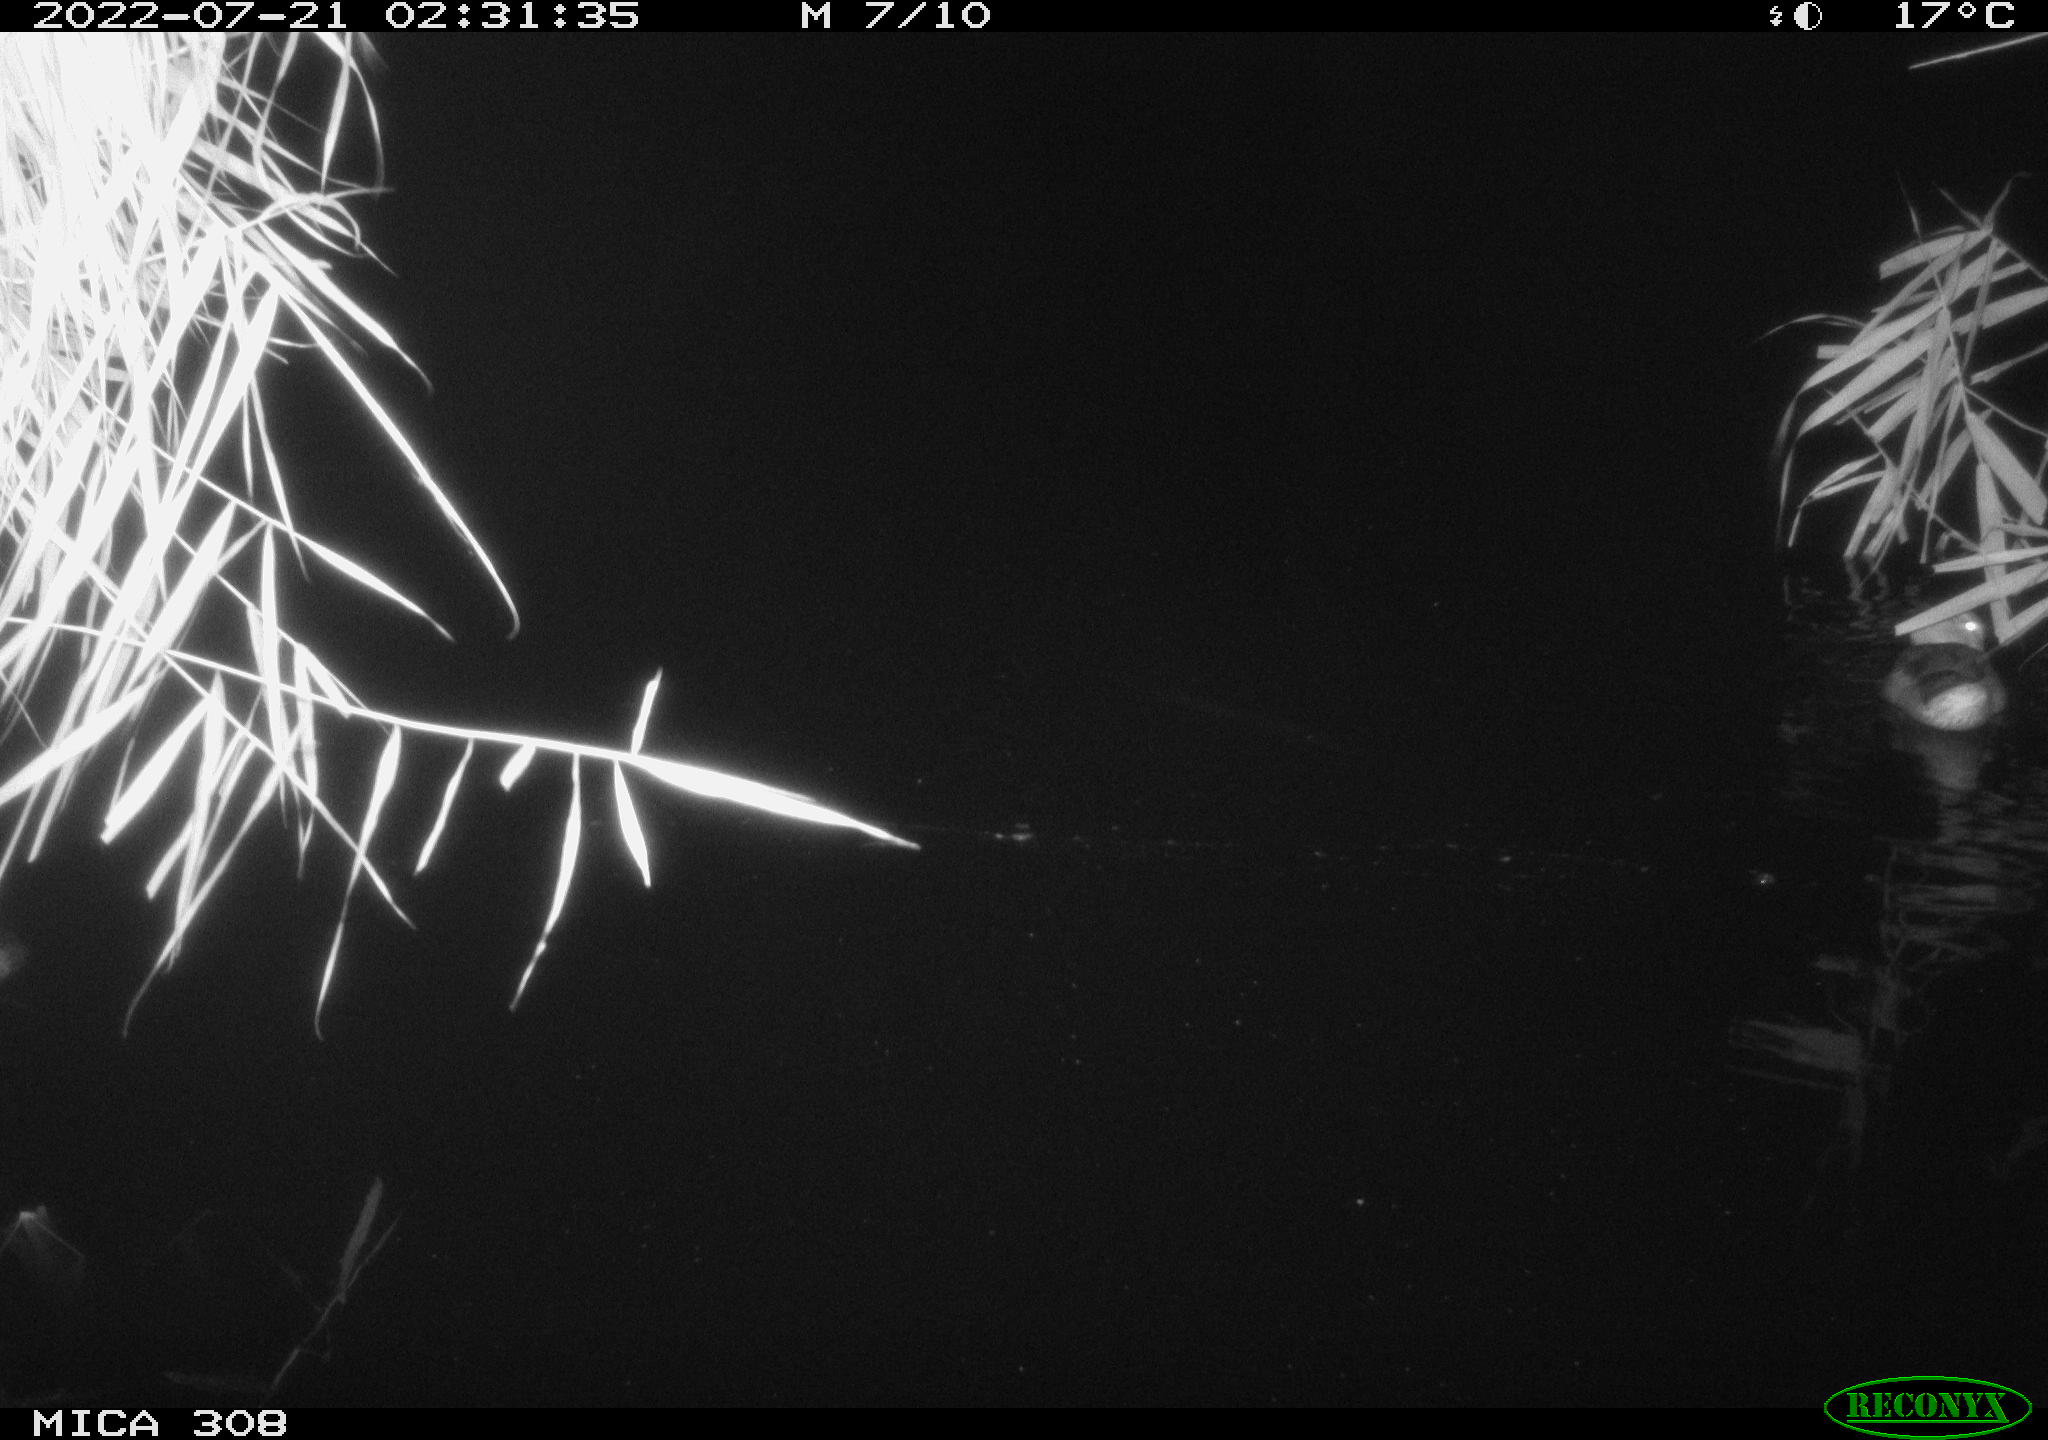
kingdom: Animalia
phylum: Chordata
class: Aves
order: Anseriformes
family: Anatidae
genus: Anas
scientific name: Anas platyrhynchos
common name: Mallard
